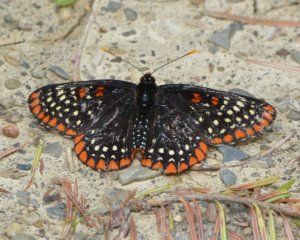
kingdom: Animalia
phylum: Arthropoda
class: Insecta
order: Lepidoptera
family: Nymphalidae
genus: Euphydryas
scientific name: Euphydryas phaeton
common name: Baltimore Checkerspot
